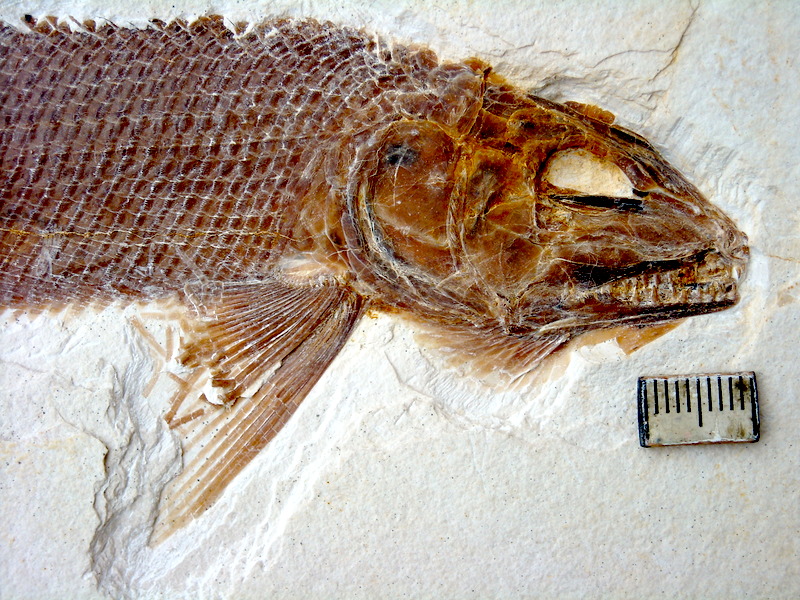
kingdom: Animalia
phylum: Chordata
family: Ophiopsiellidae
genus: Ophiopsis
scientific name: Ophiopsis muensteri
